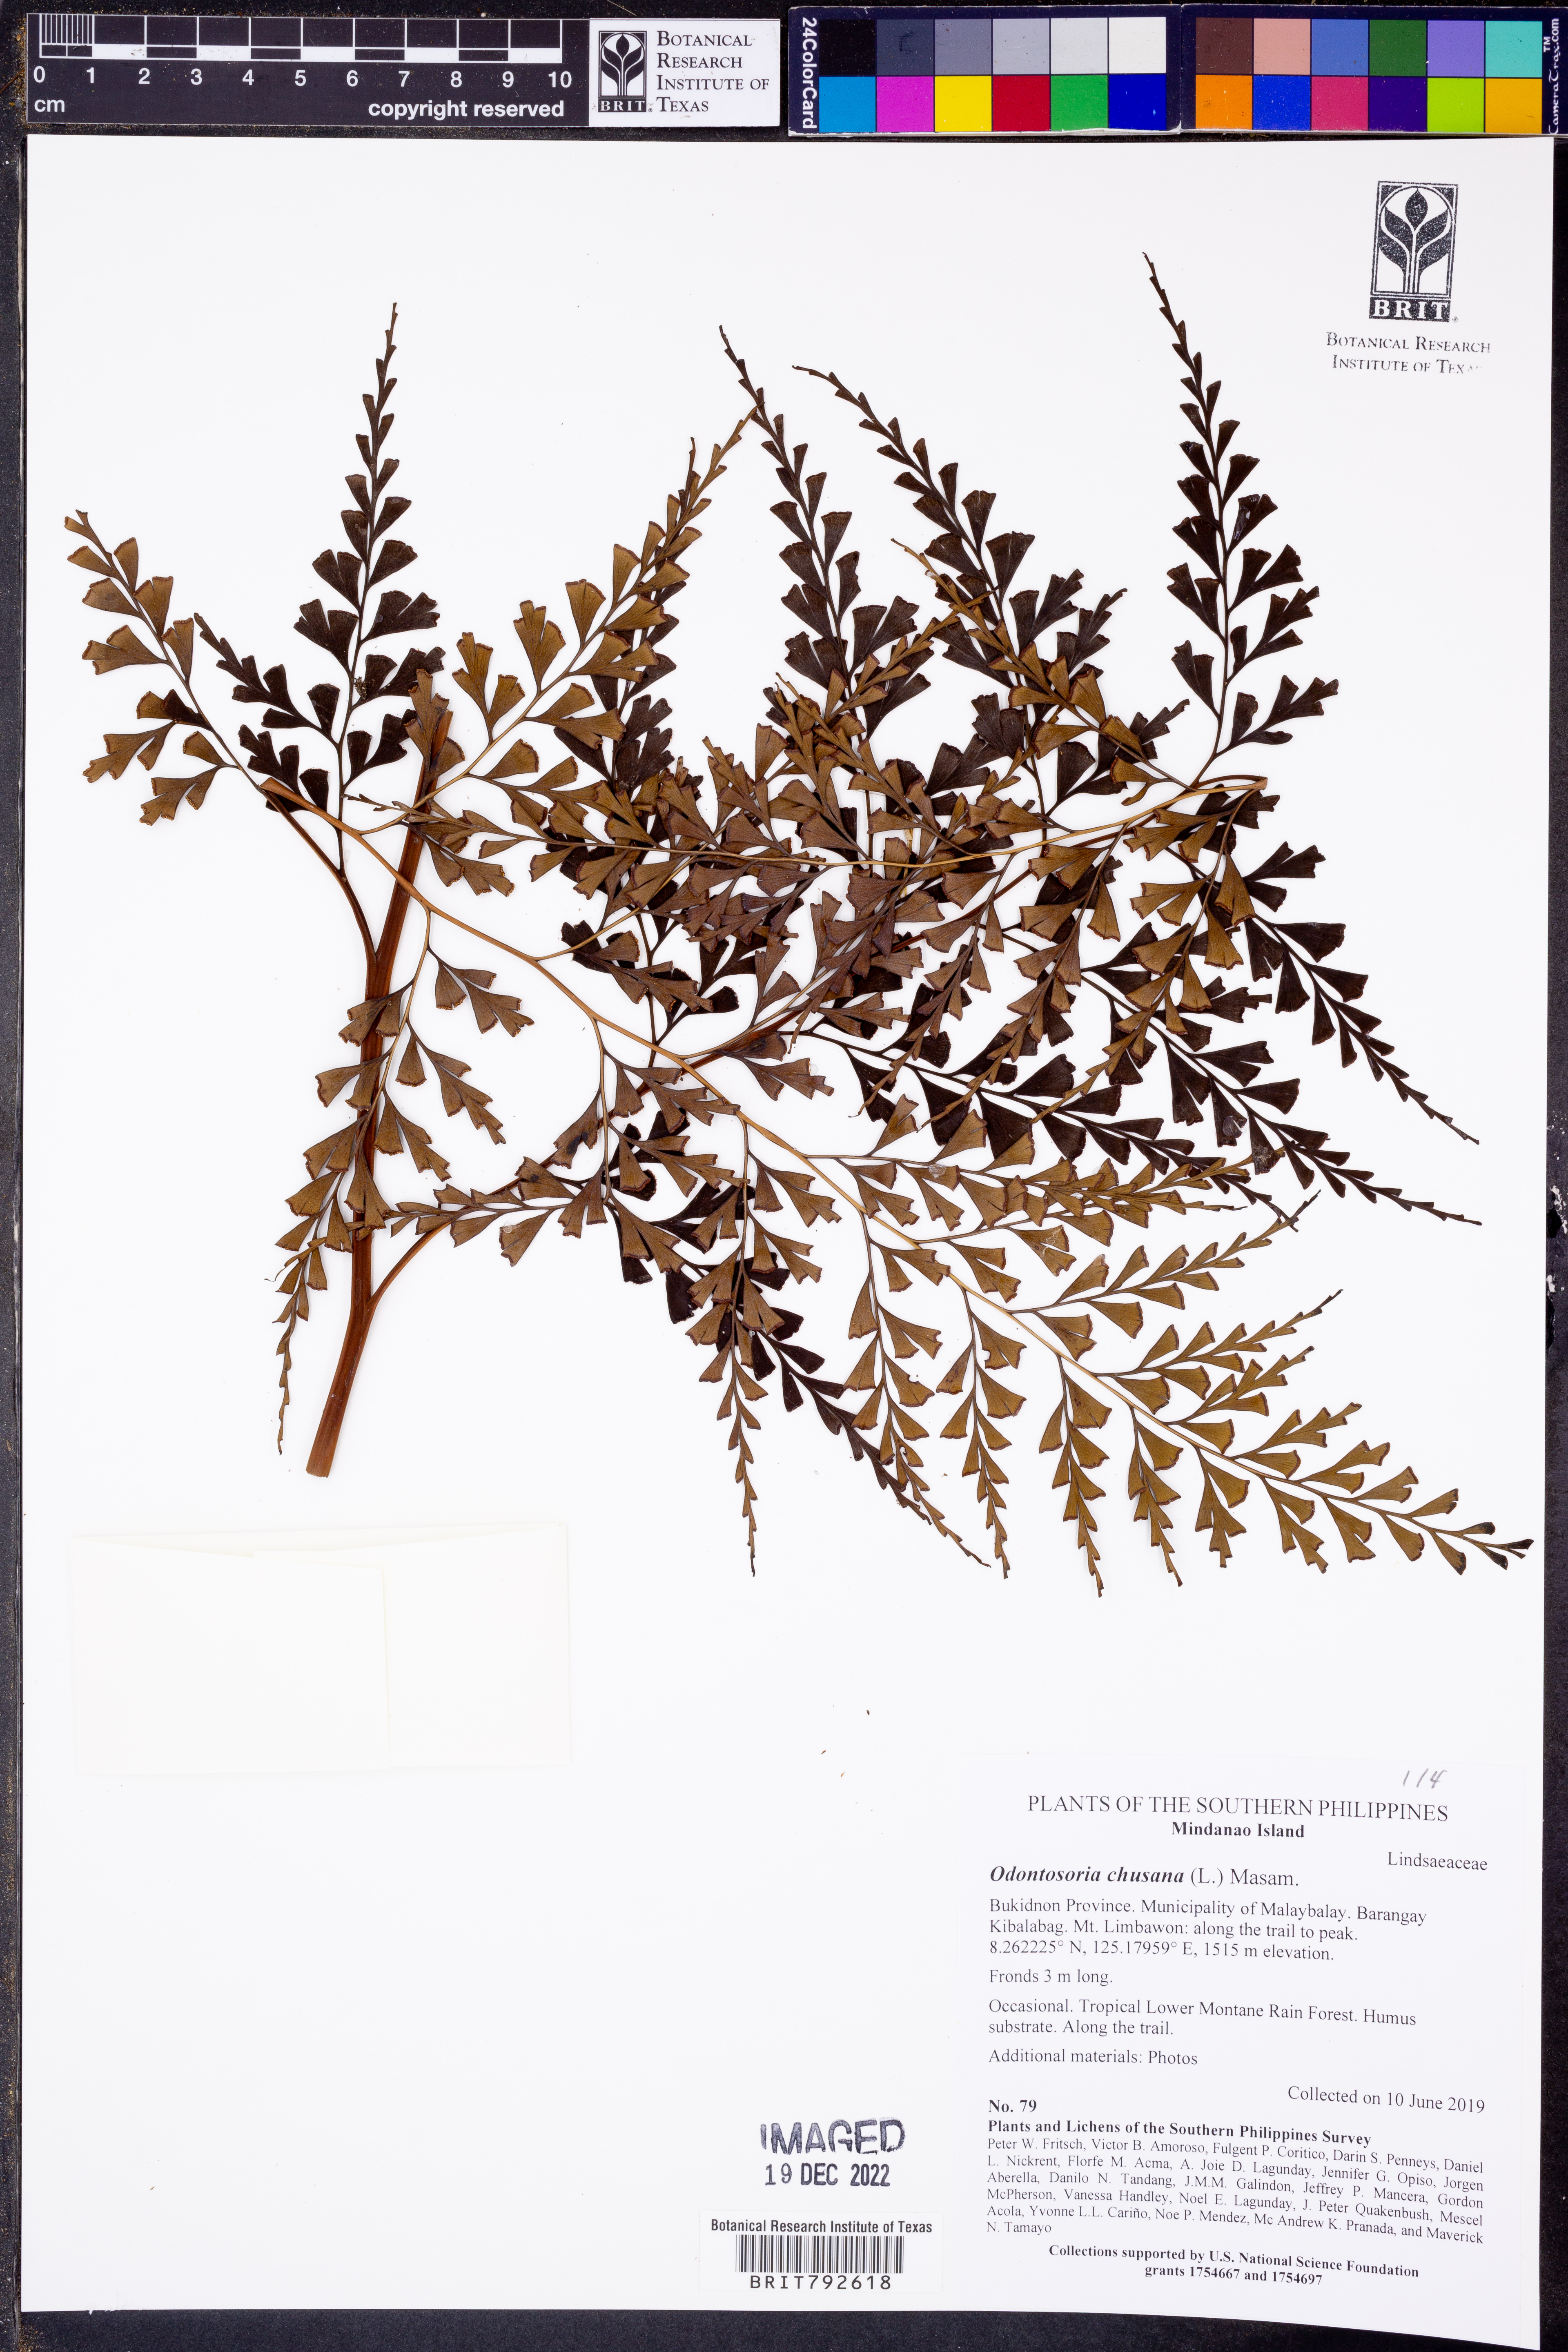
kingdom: Plantae
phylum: Tracheophyta
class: Polypodiopsida
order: Polypodiales
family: Lindsaeaceae
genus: Odontosoria
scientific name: Odontosoria chinensis
